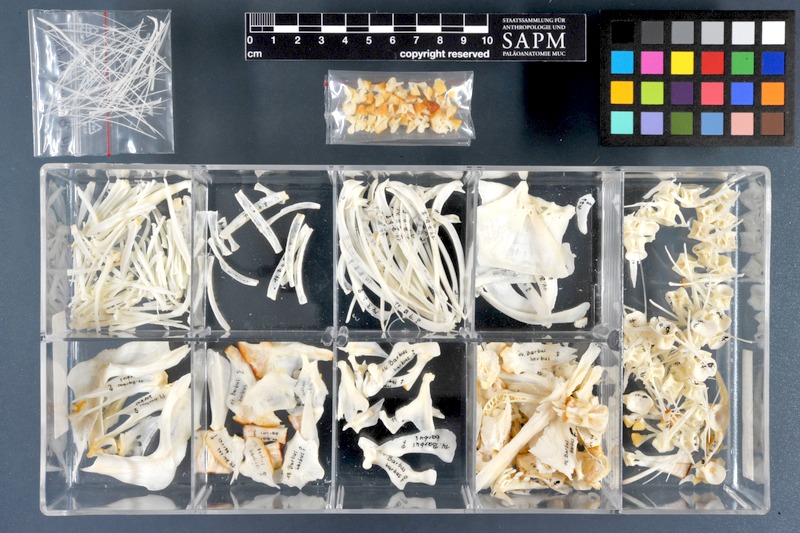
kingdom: Animalia
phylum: Chordata
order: Cypriniformes
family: Cyprinidae
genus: Barbus
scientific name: Barbus barbus
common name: Barbel
